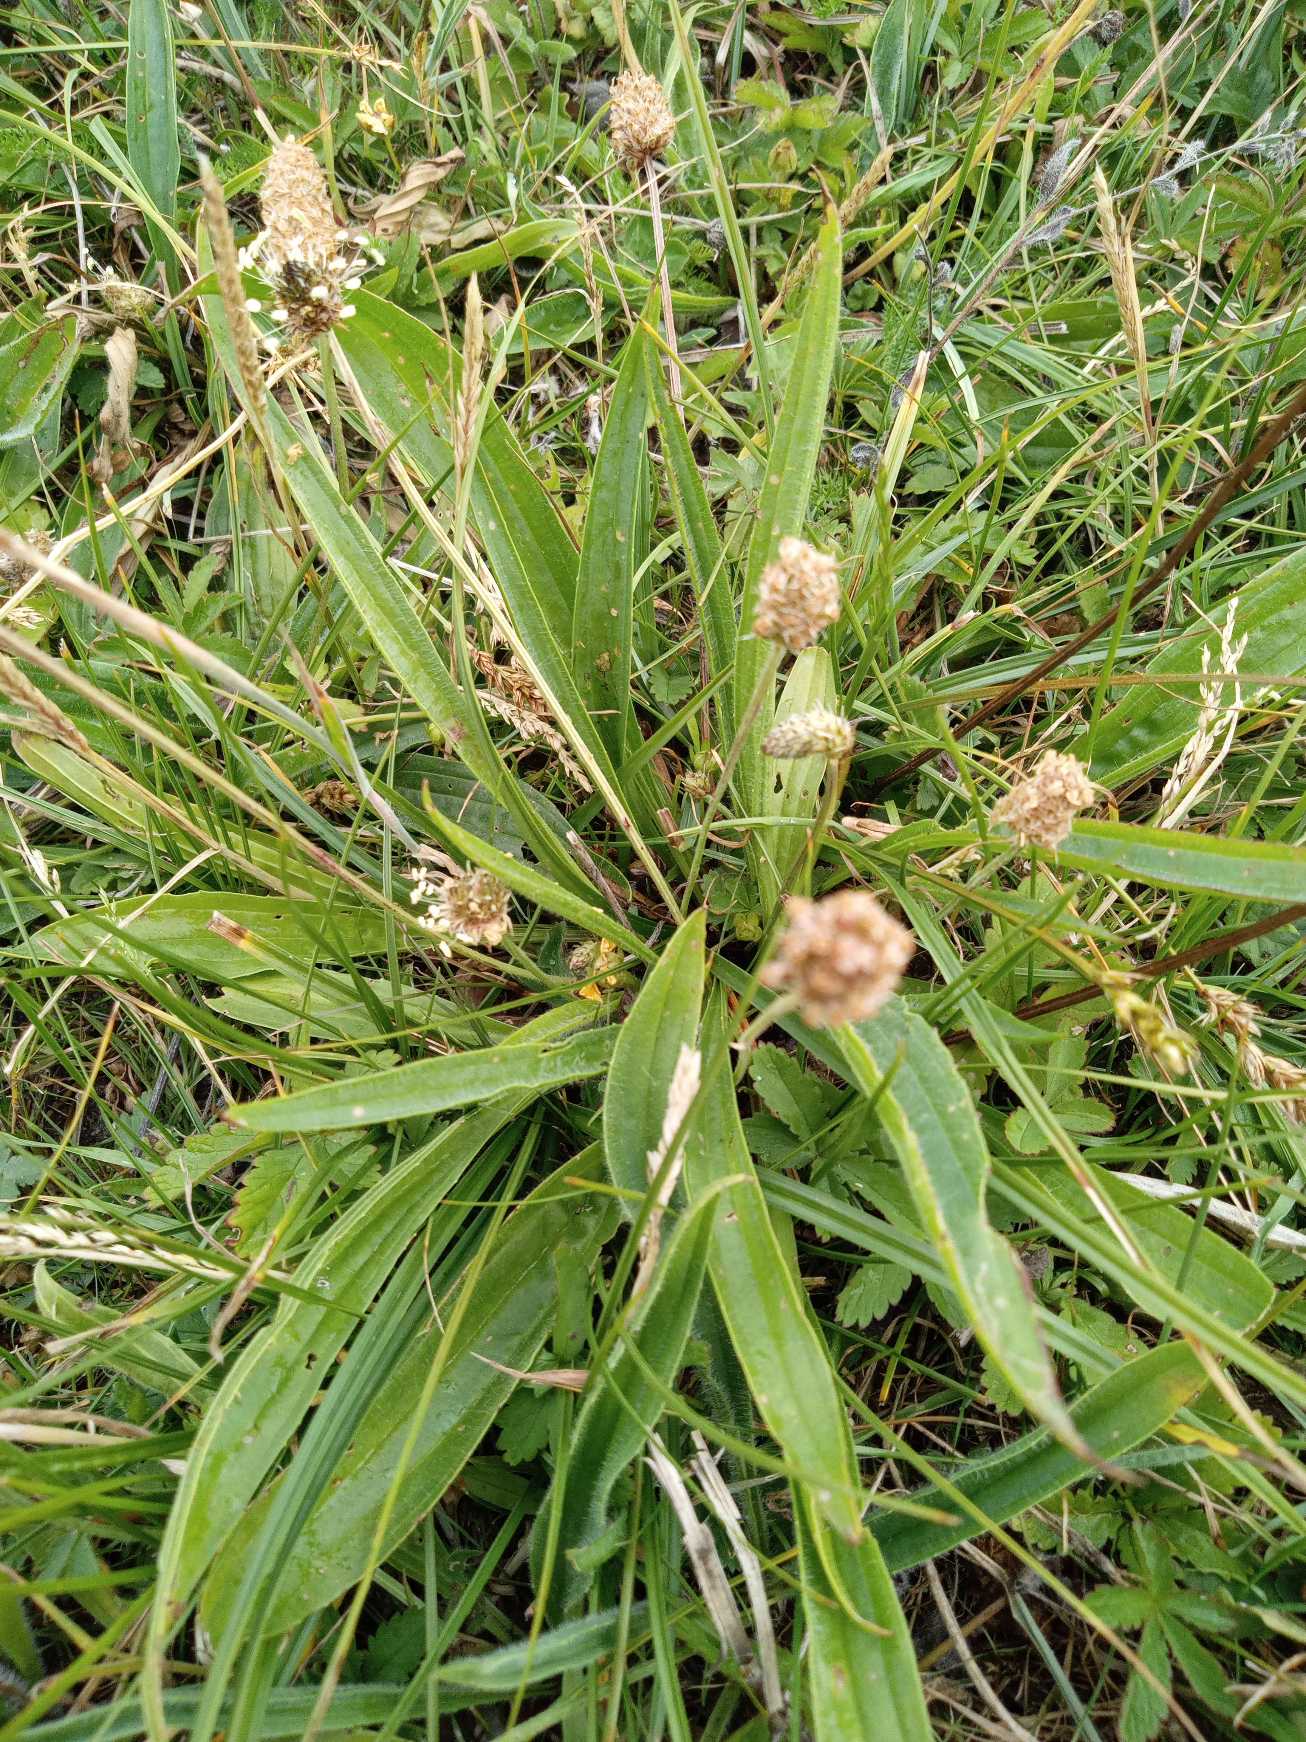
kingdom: Plantae
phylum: Tracheophyta
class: Magnoliopsida
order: Lamiales
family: Plantaginaceae
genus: Plantago
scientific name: Plantago lanceolata
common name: Lancet-vejbred
